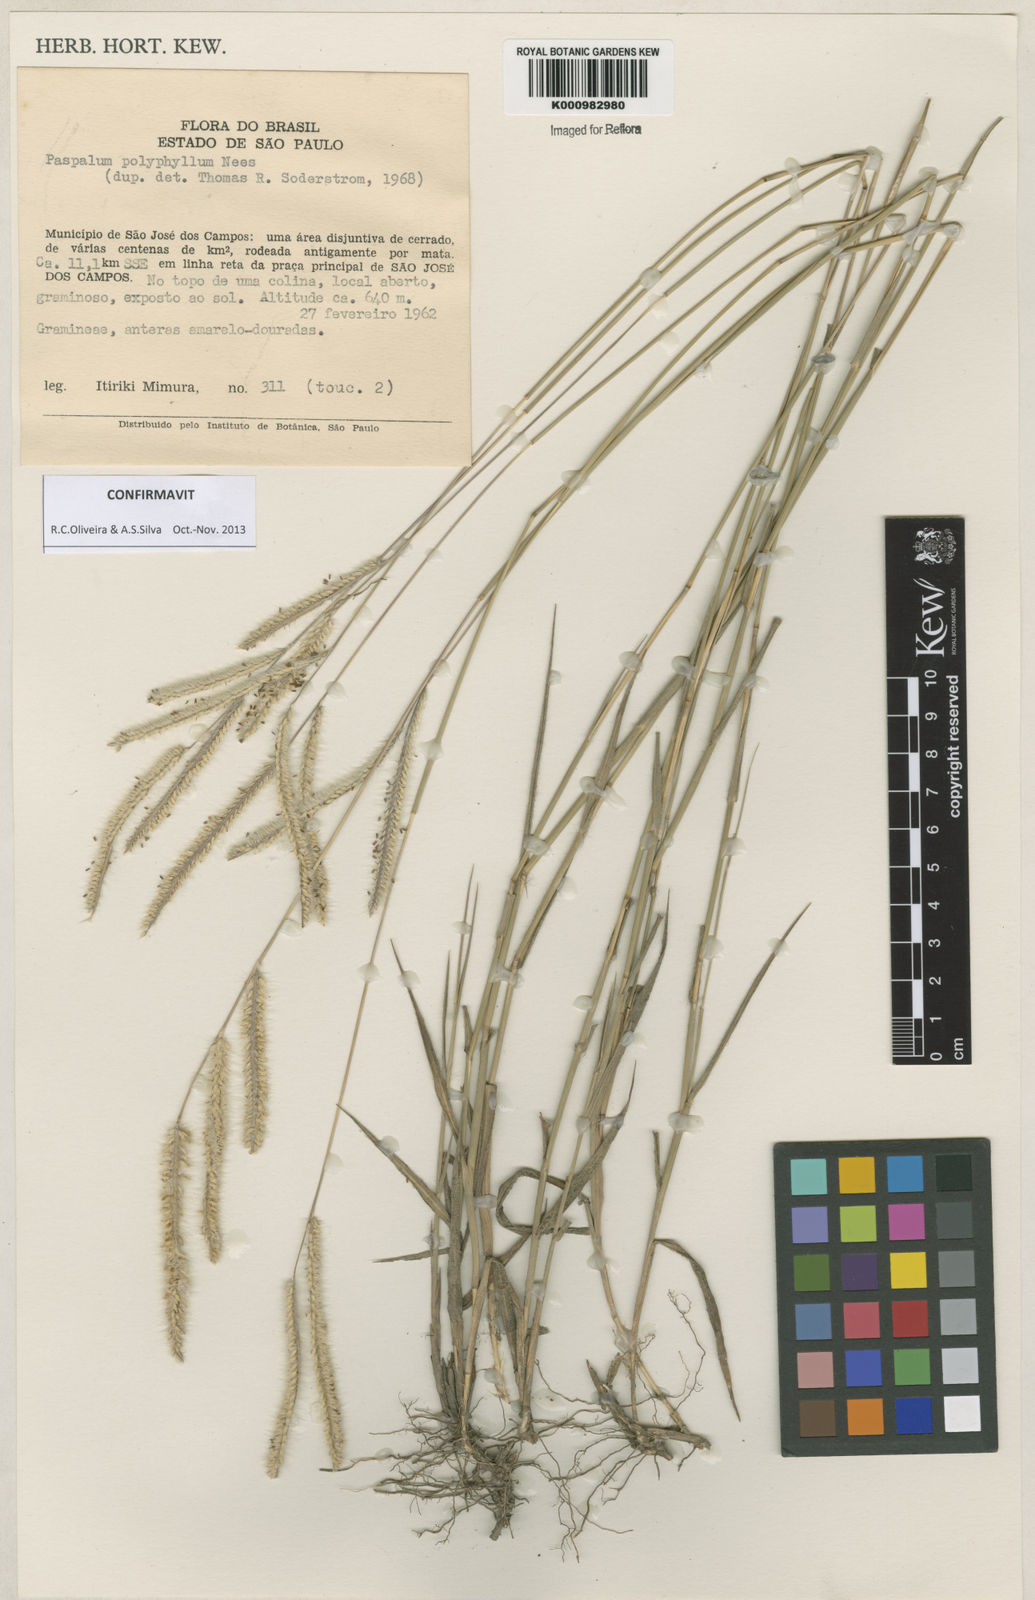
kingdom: Plantae
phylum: Tracheophyta
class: Liliopsida
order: Poales
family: Poaceae
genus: Paspalum
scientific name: Paspalum
